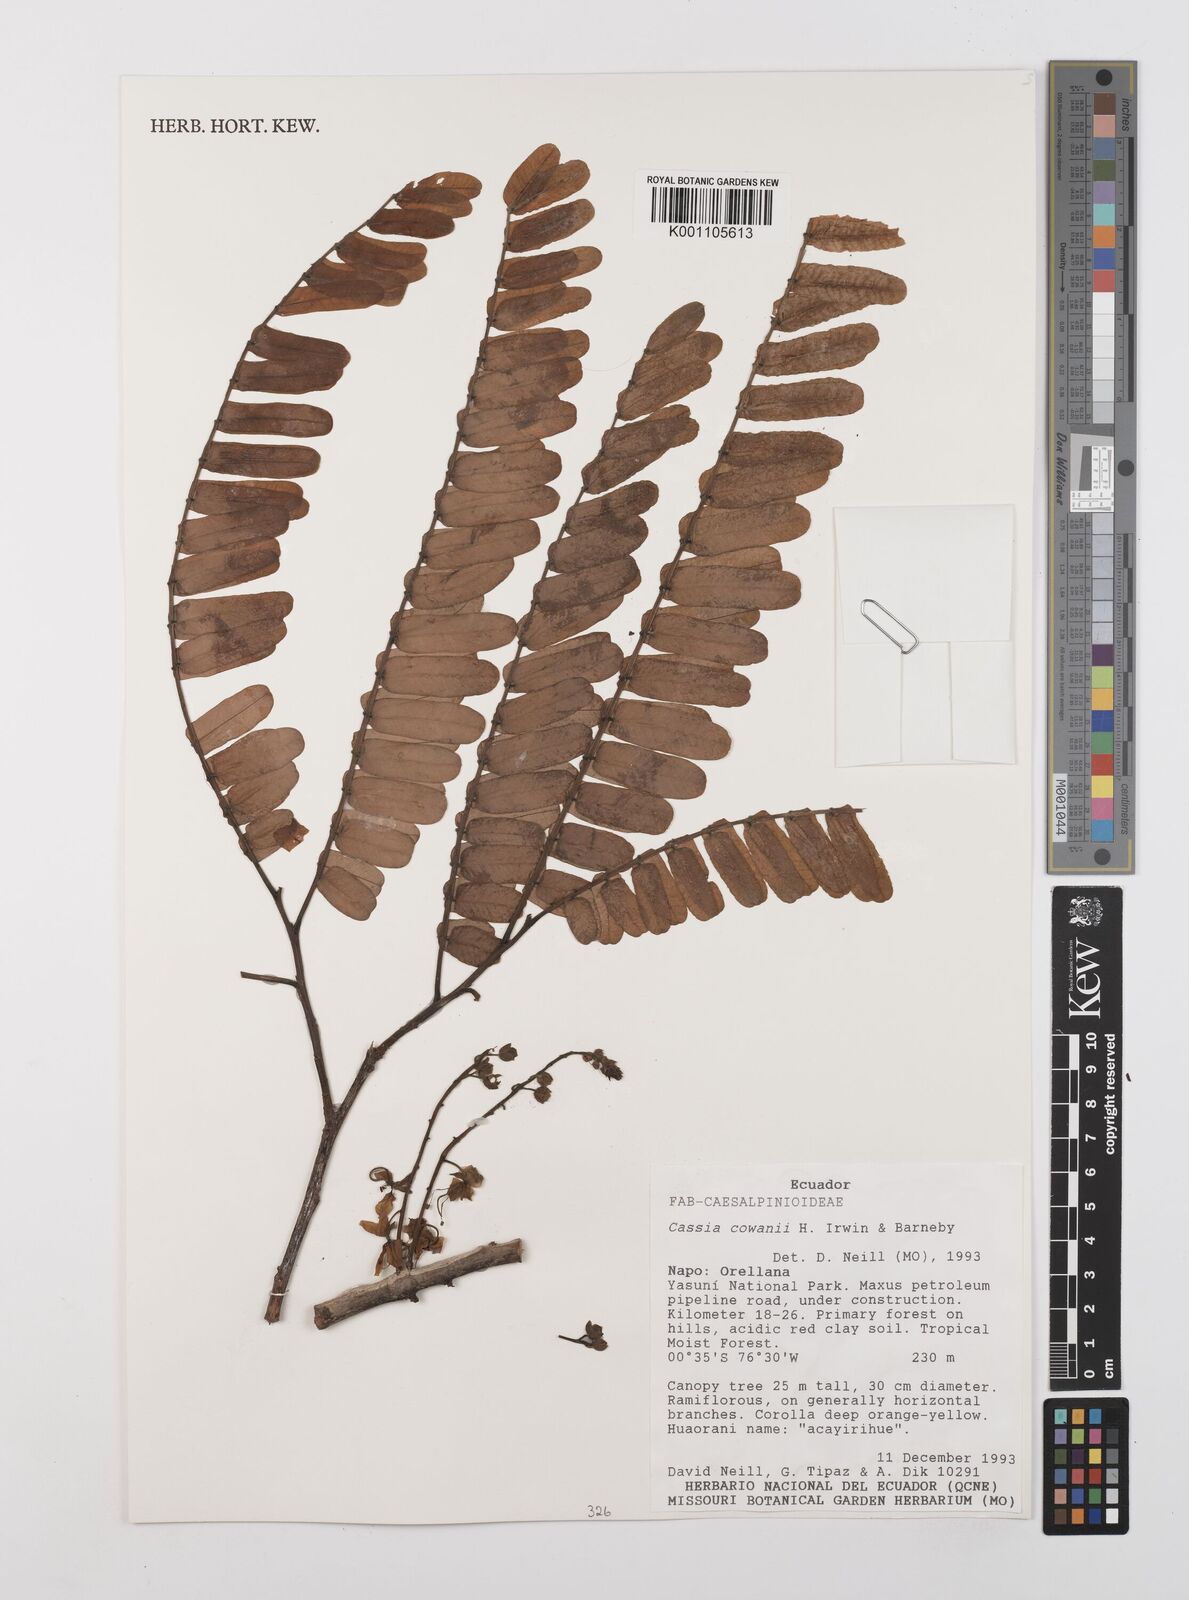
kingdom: Plantae
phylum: Tracheophyta
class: Magnoliopsida
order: Fabales
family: Fabaceae
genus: Cassia
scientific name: Cassia cowanii
